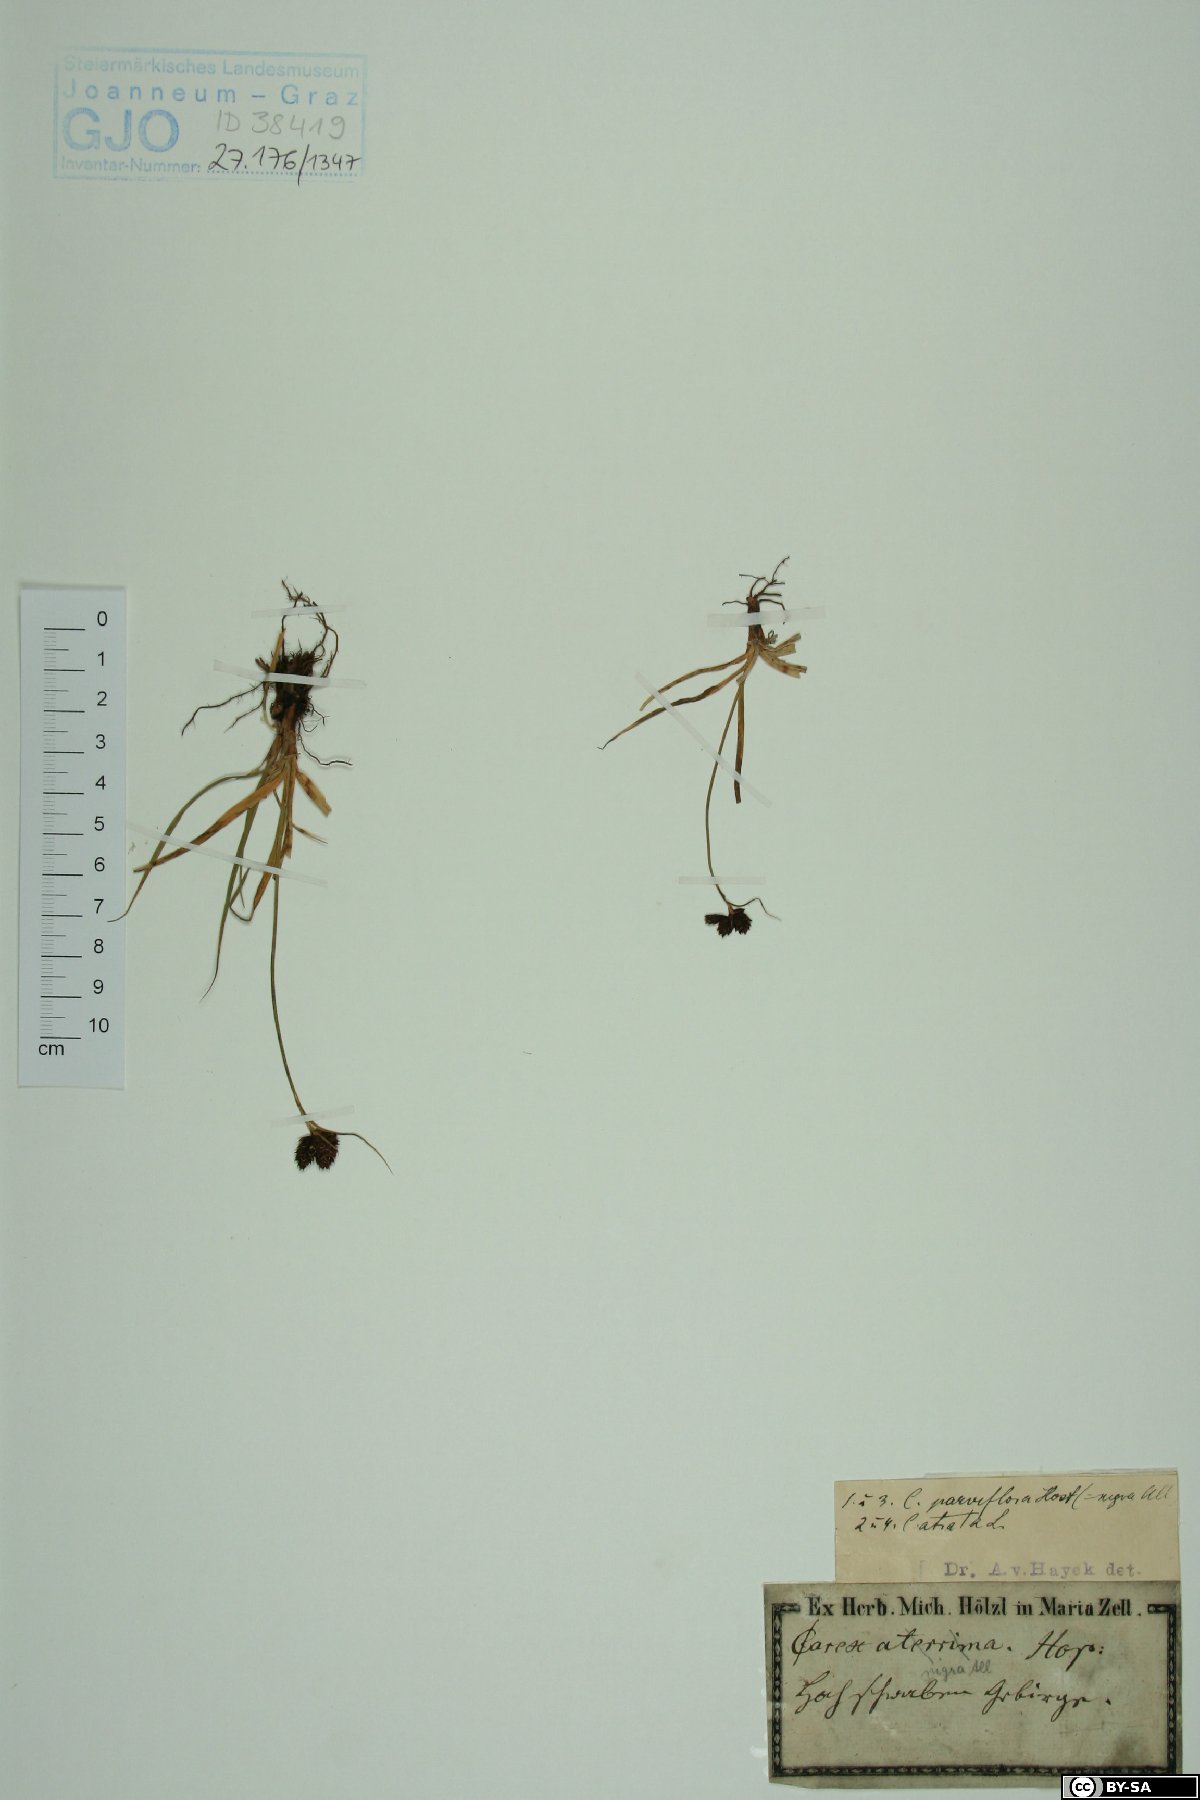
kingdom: Plantae
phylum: Tracheophyta
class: Liliopsida
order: Poales
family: Cyperaceae
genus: Carex
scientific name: Carex parviflora
